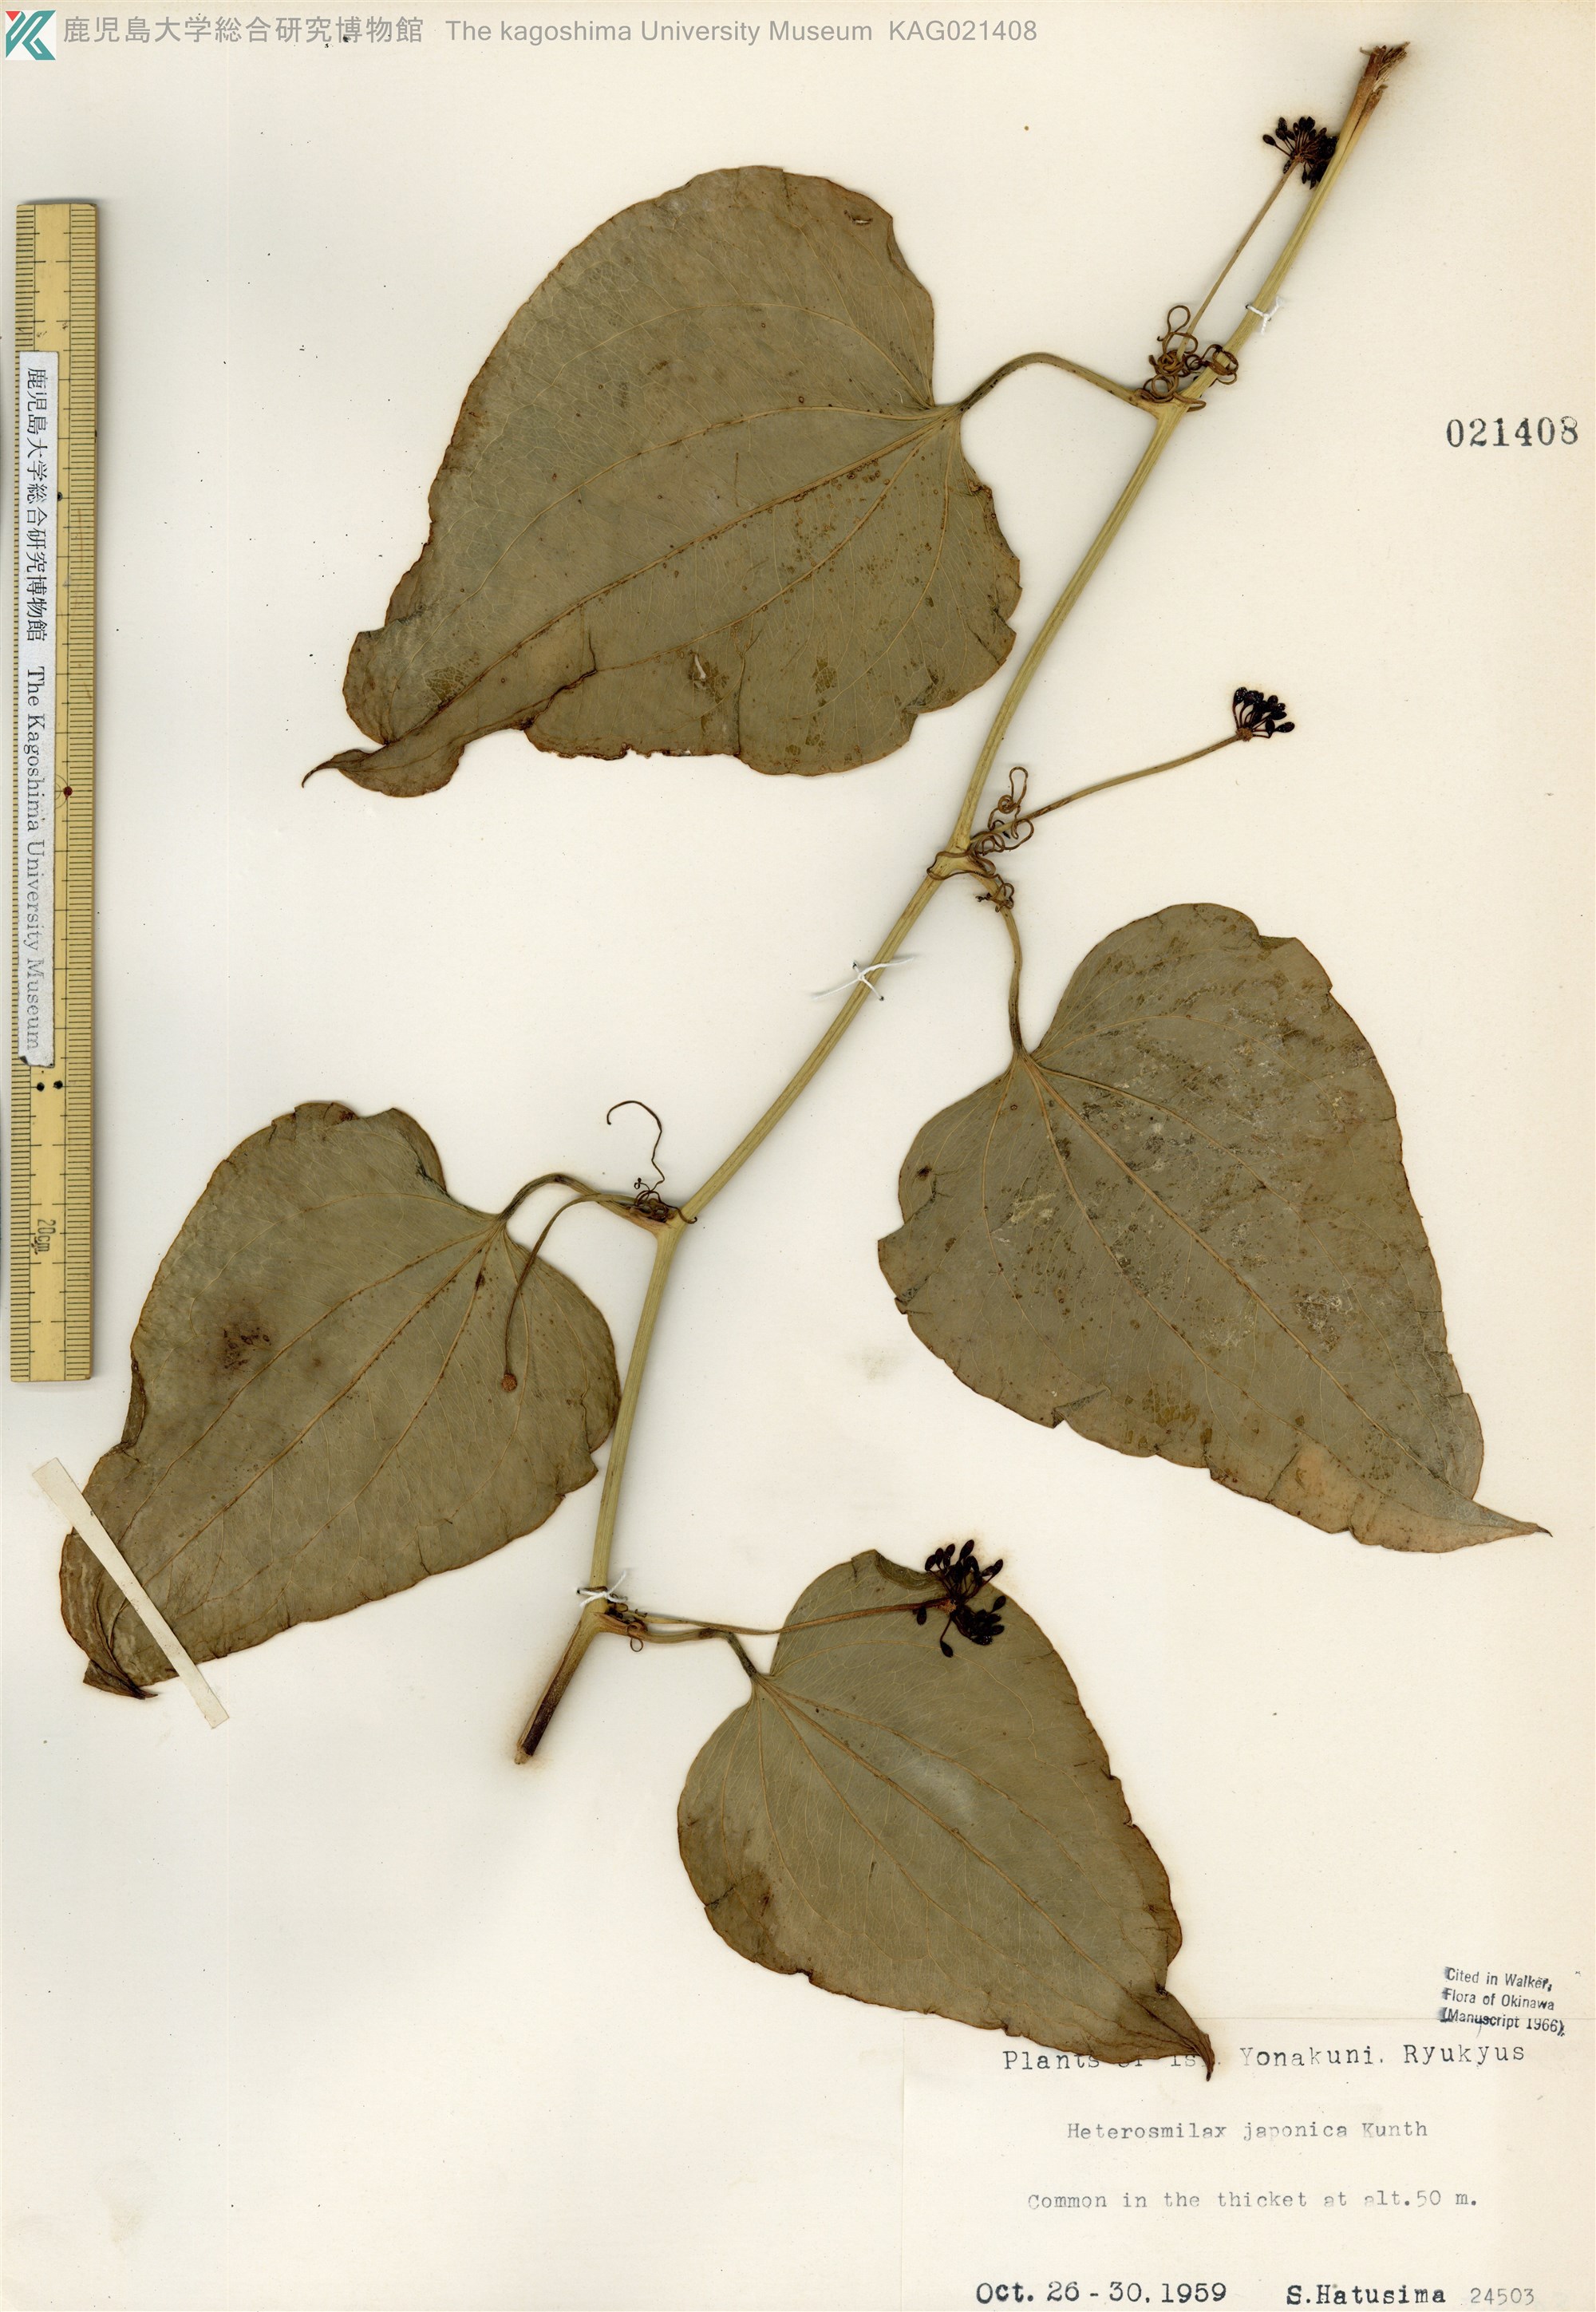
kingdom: Plantae
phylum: Tracheophyta
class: Liliopsida
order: Liliales
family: Smilacaceae
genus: Smilax
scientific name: Smilax insularis
